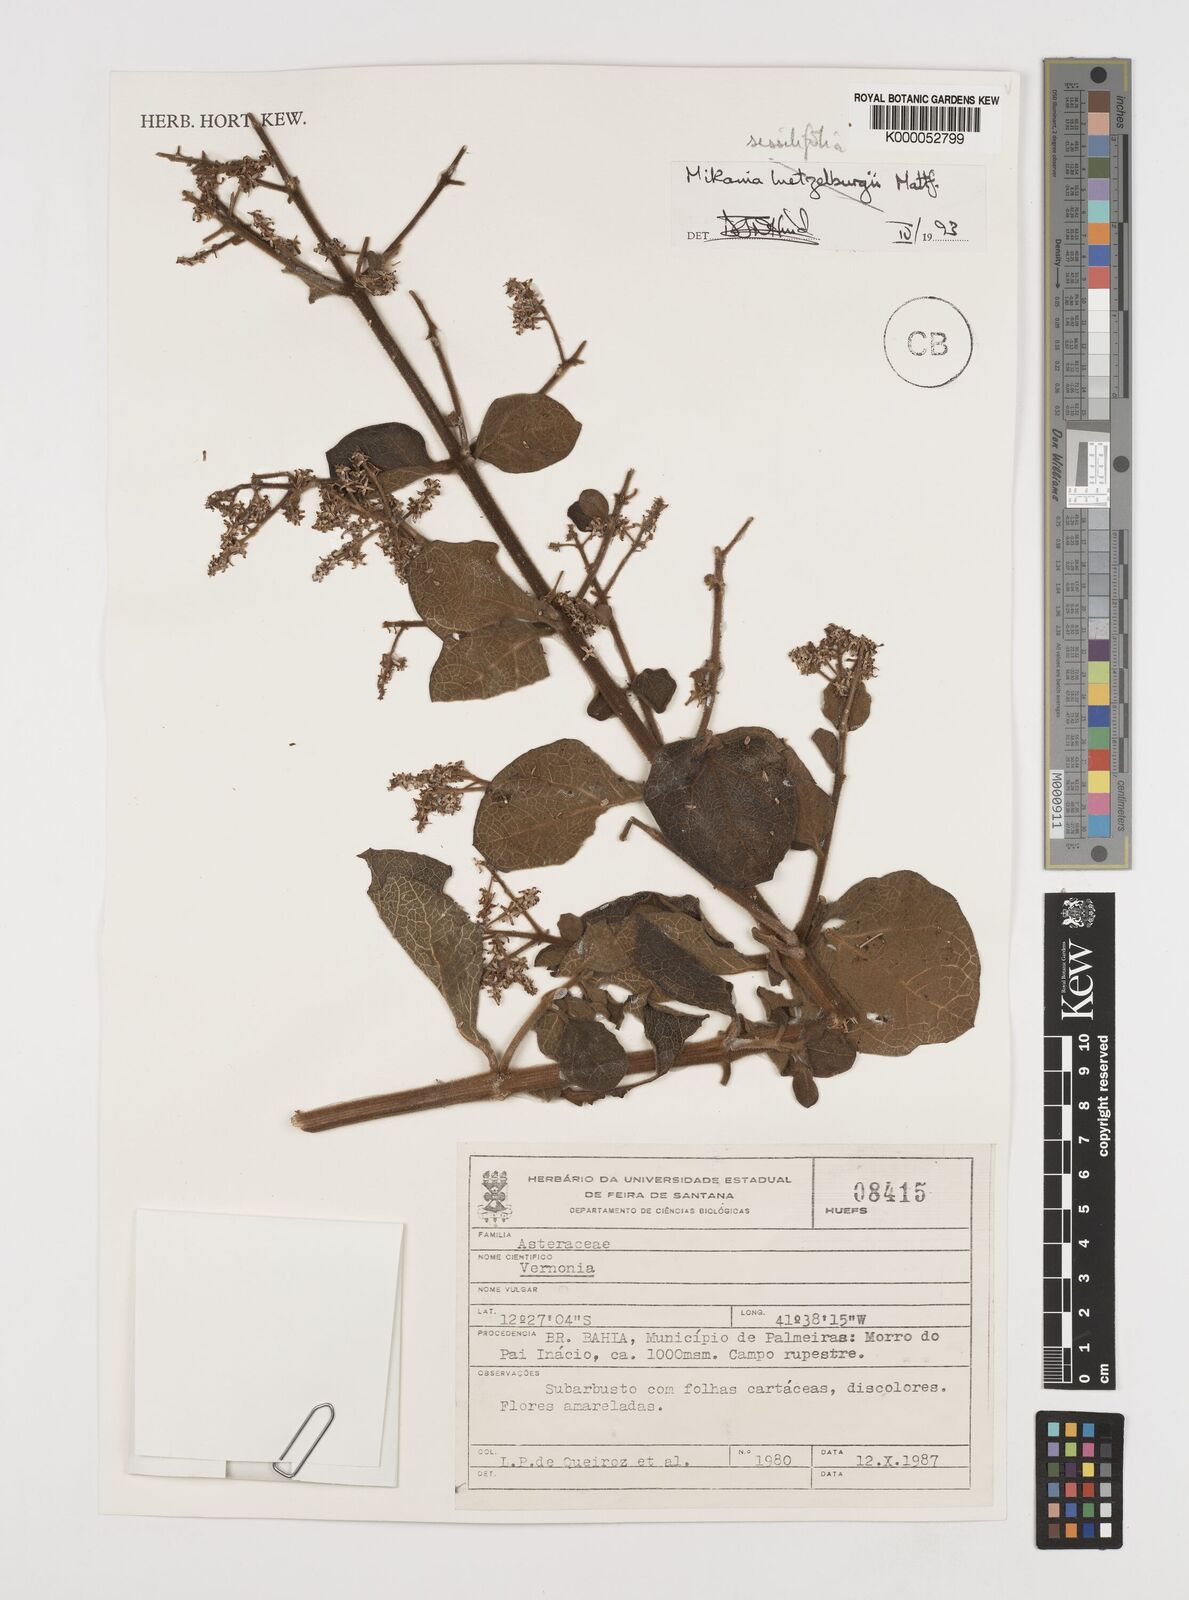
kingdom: Plantae
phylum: Tracheophyta
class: Magnoliopsida
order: Asterales
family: Asteraceae
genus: Mikania
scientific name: Mikania sessilifolia
